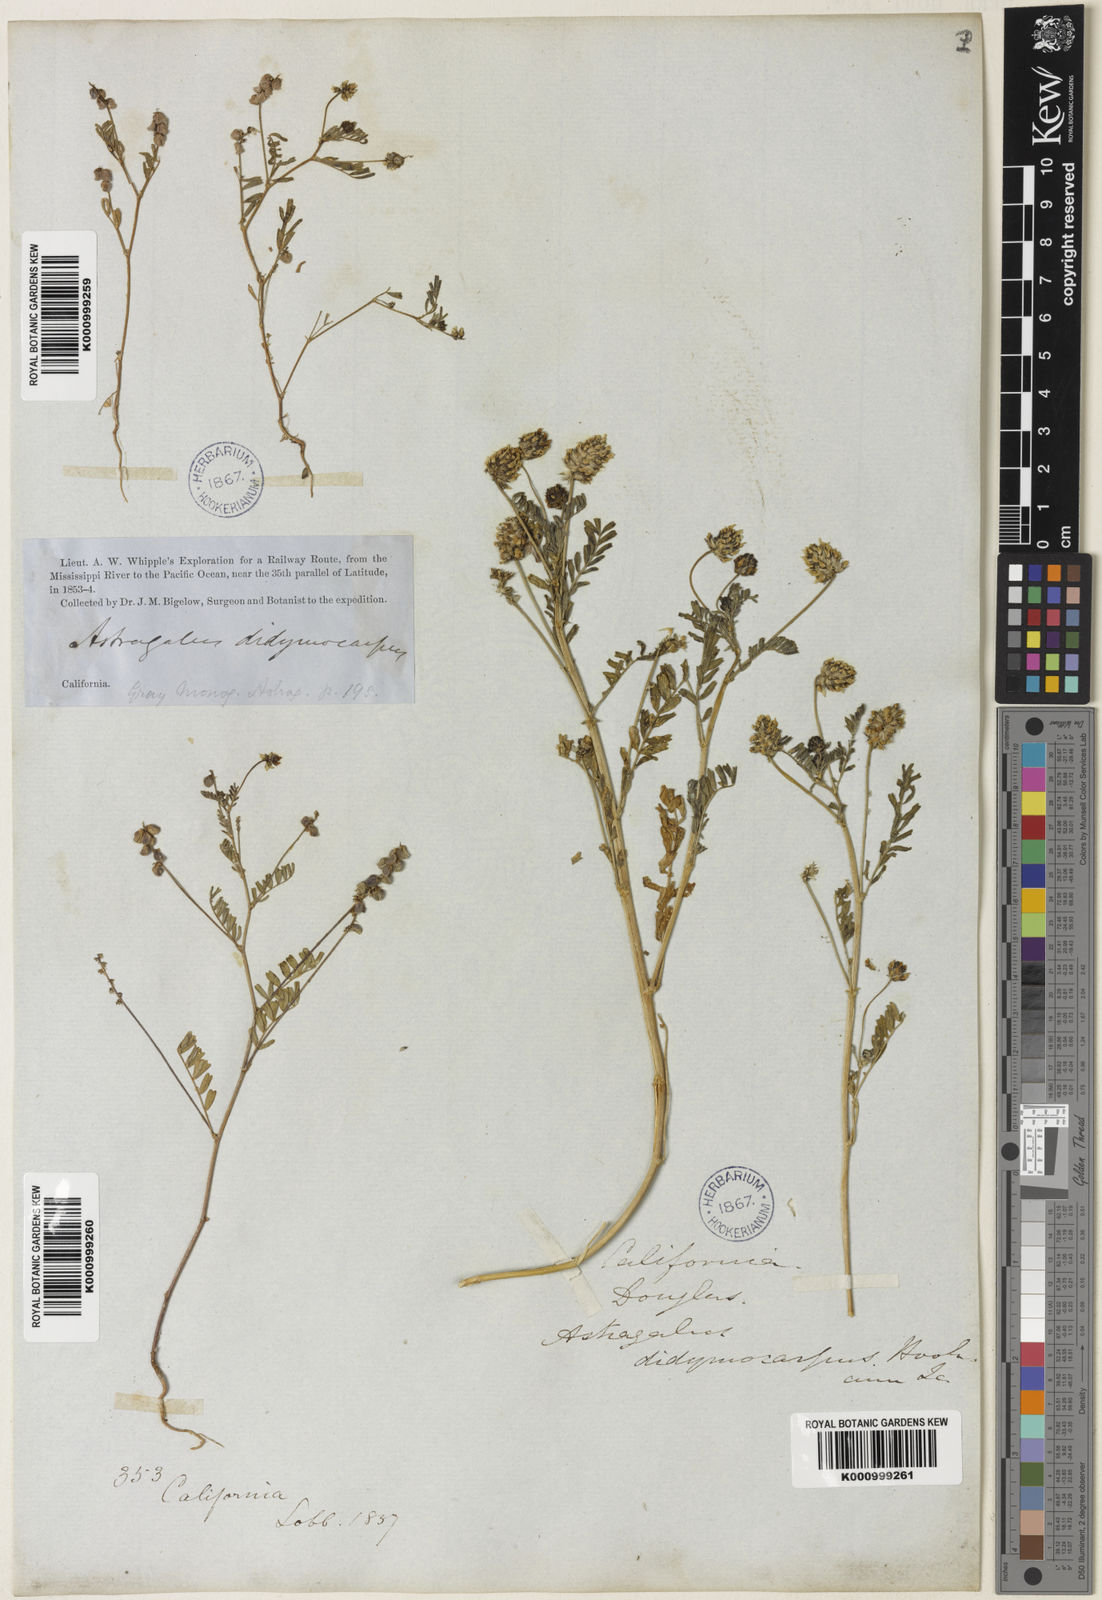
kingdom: Plantae
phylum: Tracheophyta
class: Magnoliopsida
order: Fabales
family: Fabaceae
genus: Astragalus
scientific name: Astragalus didymocarpus
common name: Dwarf white milkvetch
